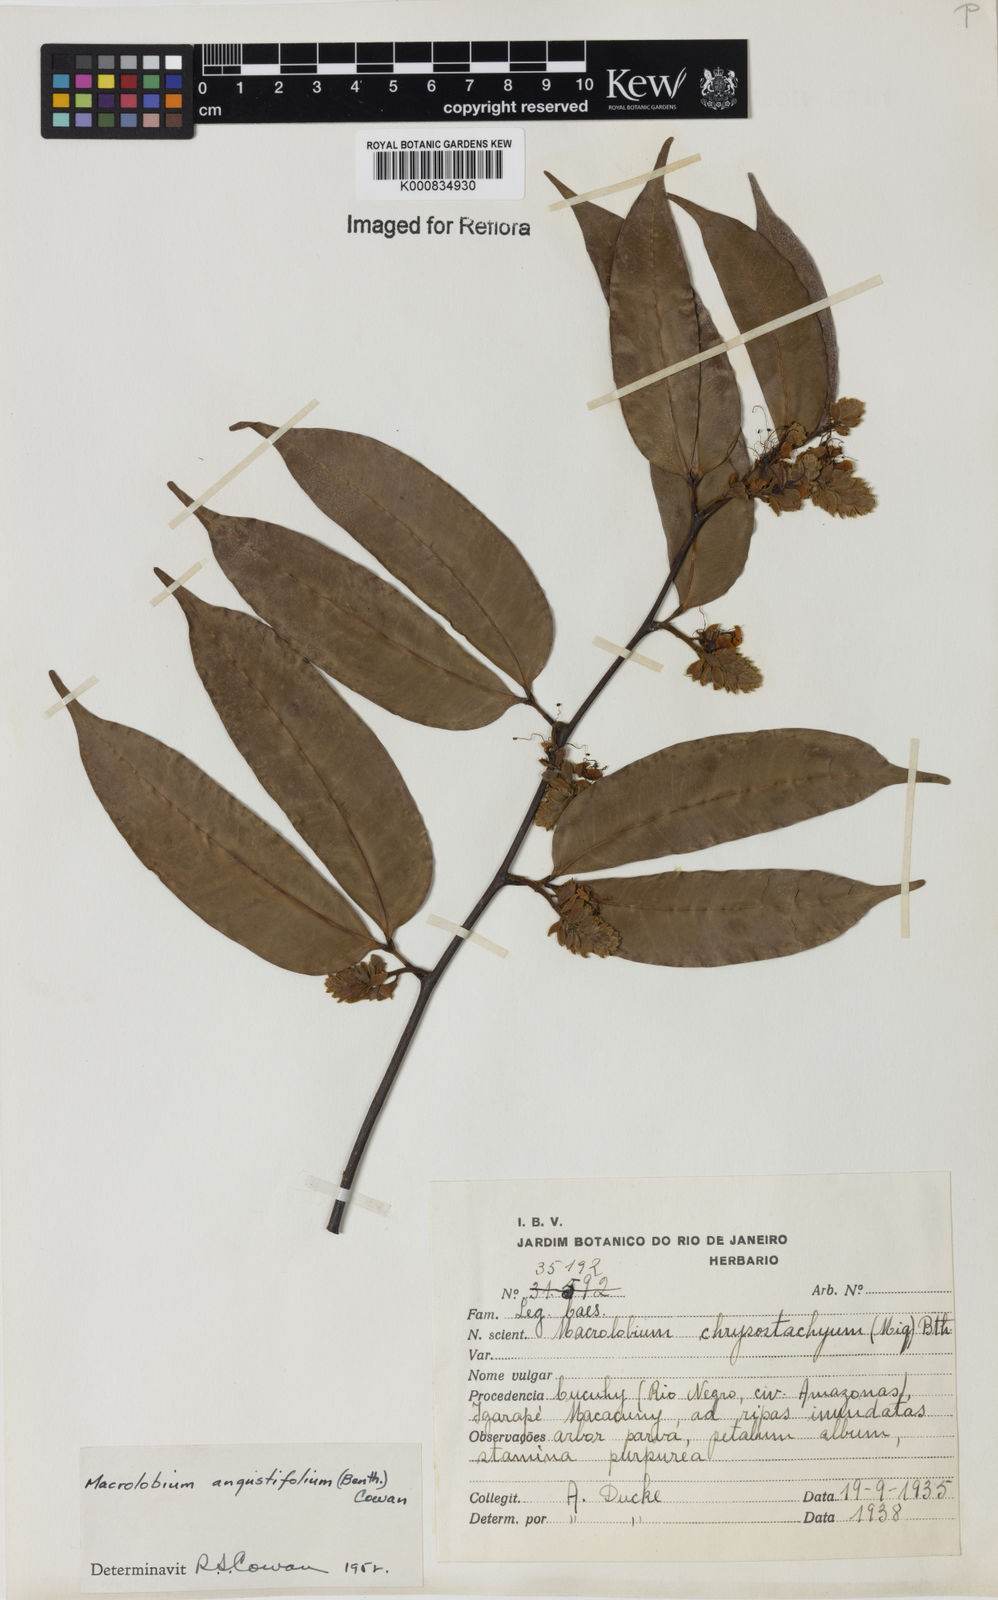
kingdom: Plantae
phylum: Tracheophyta
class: Magnoliopsida
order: Fabales
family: Fabaceae
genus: Macrolobium
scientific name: Macrolobium angustifolium
